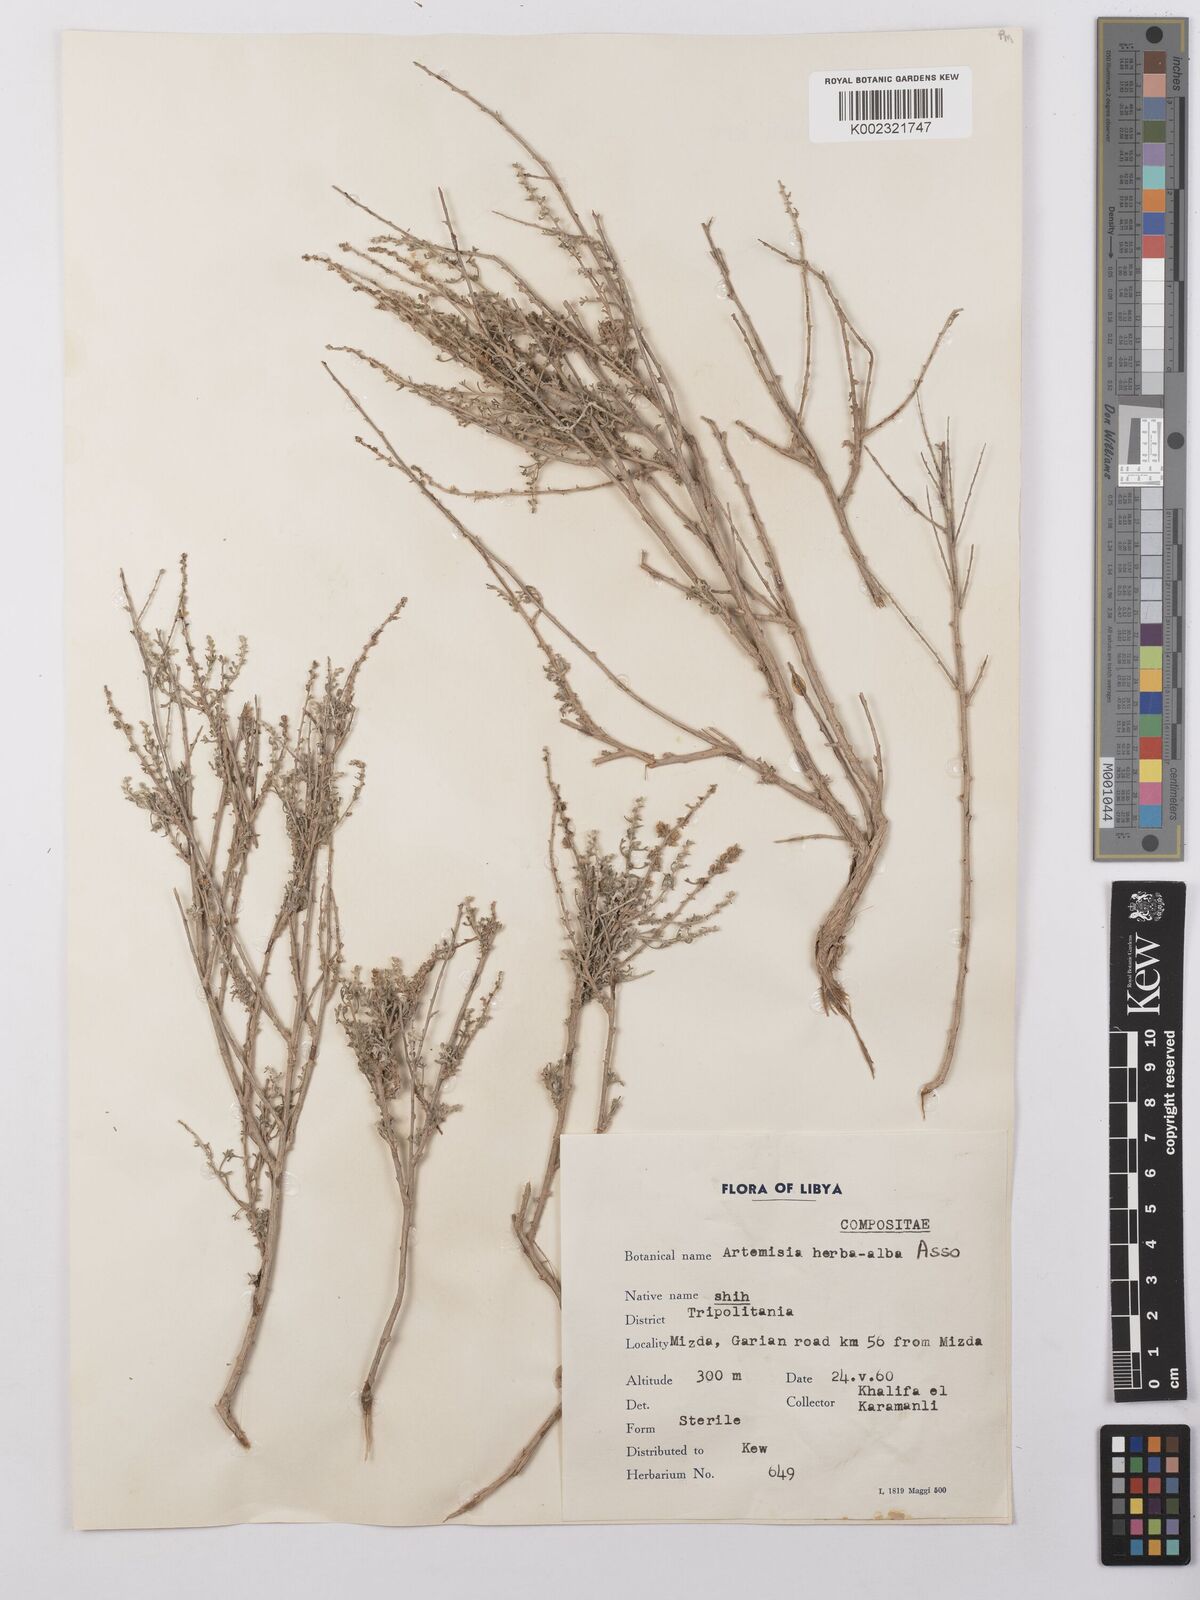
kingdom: Plantae
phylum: Tracheophyta
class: Magnoliopsida
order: Asterales
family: Asteraceae
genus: Artemisia
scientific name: Artemisia herba-alba
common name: White wormwood
